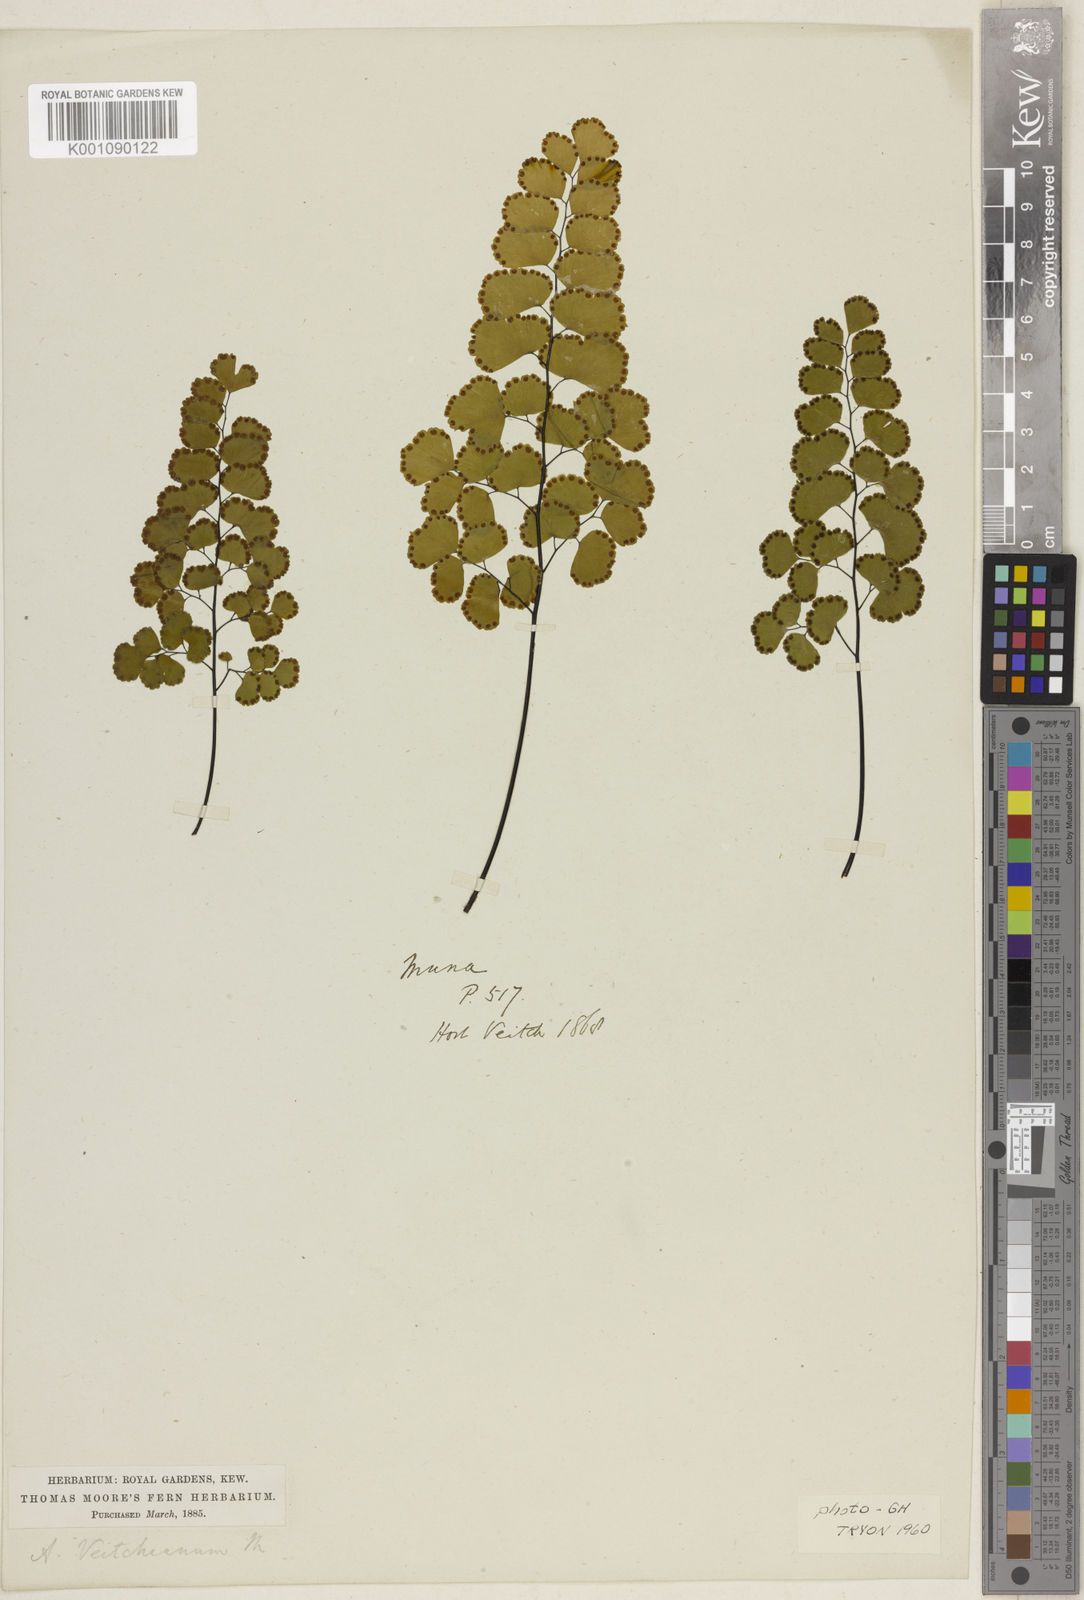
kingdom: Plantae
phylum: Tracheophyta
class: Polypodiopsida
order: Polypodiales
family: Pteridaceae
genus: Adiantum
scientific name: Adiantum ruizianum
